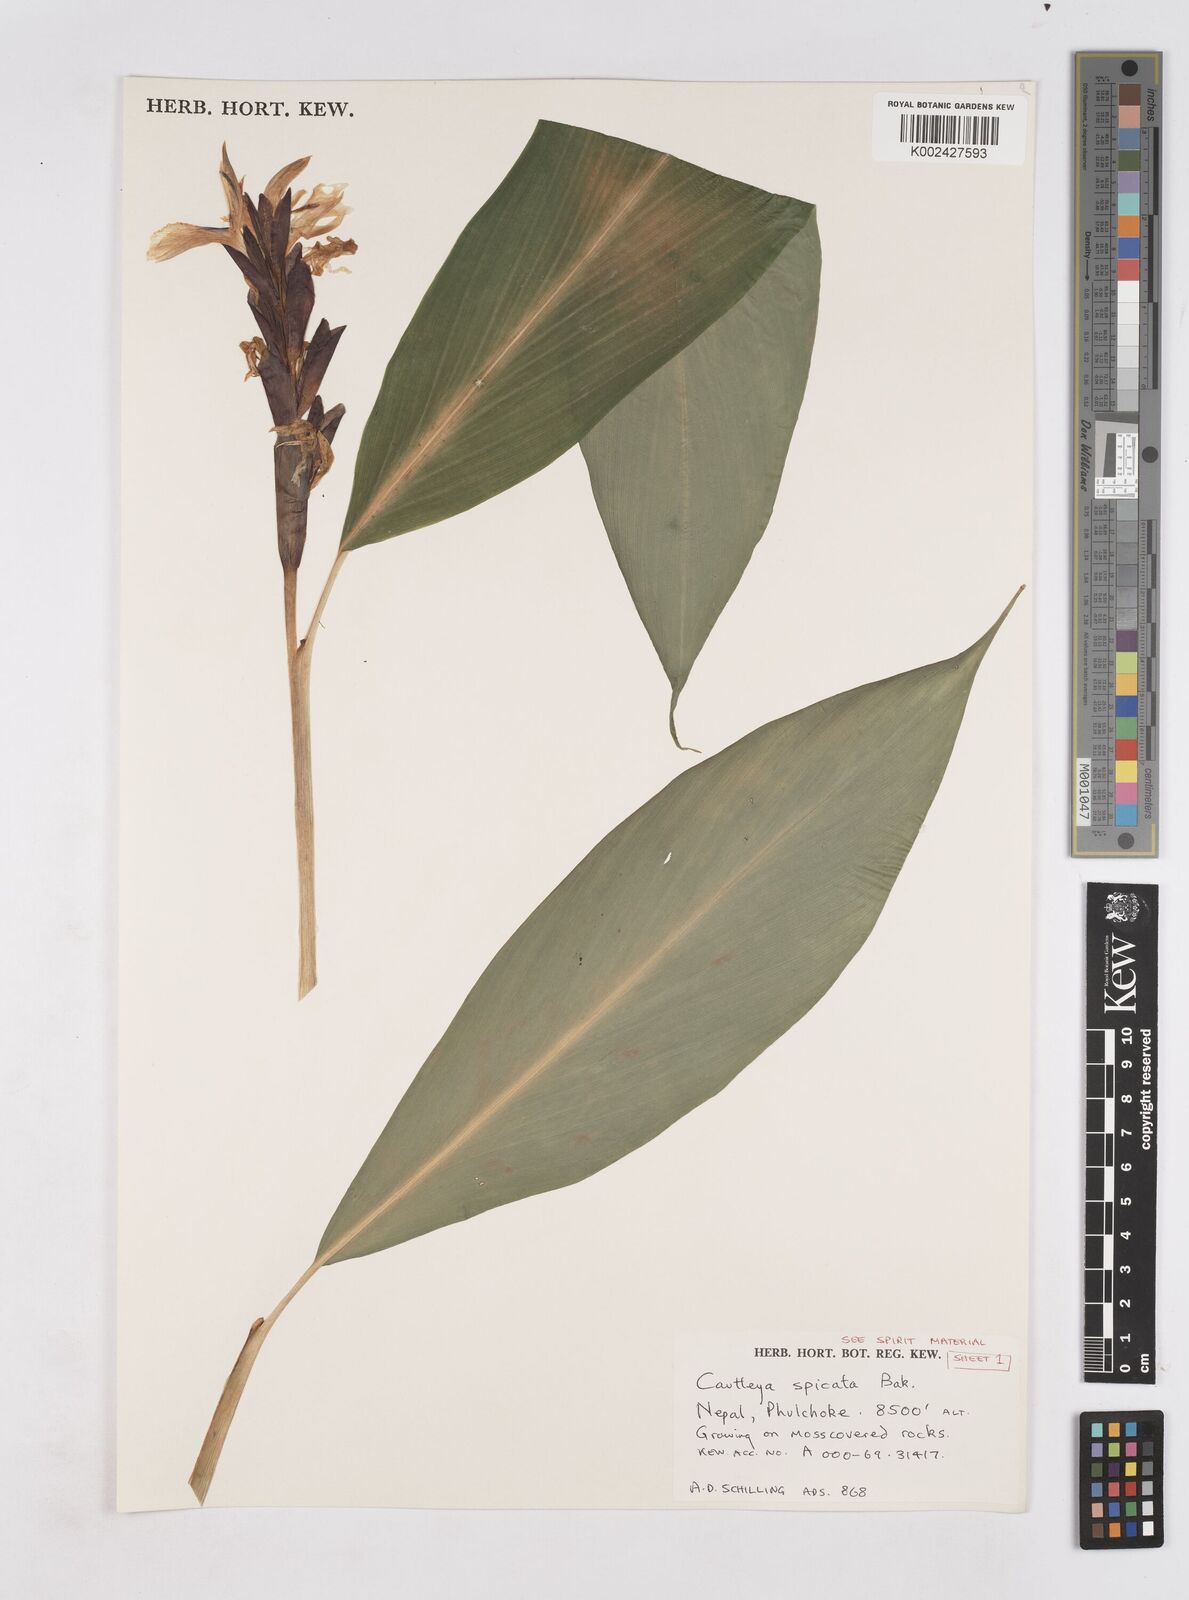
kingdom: Plantae
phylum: Tracheophyta
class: Liliopsida
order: Zingiberales
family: Zingiberaceae
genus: Cautleya
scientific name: Cautleya spicata
